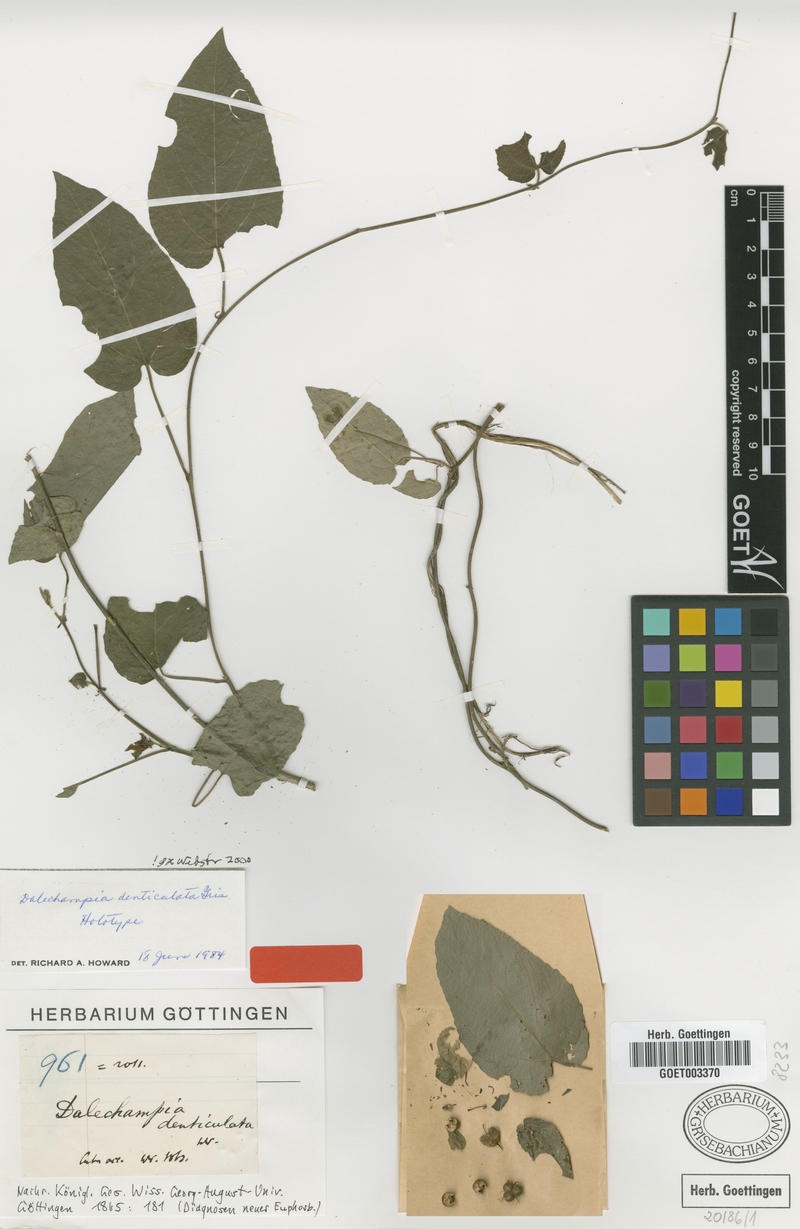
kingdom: Plantae
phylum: Tracheophyta
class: Magnoliopsida
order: Malpighiales
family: Euphorbiaceae
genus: Dalechampia
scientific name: Dalechampia denticulata
